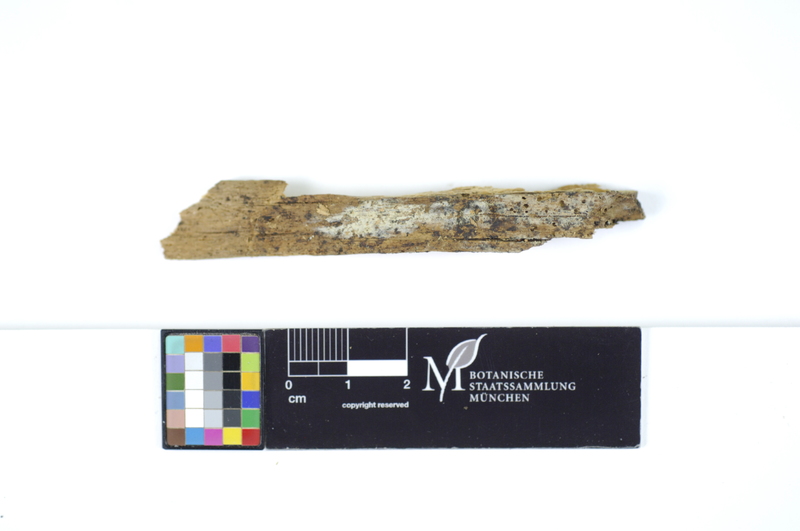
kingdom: Plantae
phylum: Tracheophyta
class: Pinopsida
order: Pinales
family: Pinaceae
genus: Picea
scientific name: Picea
